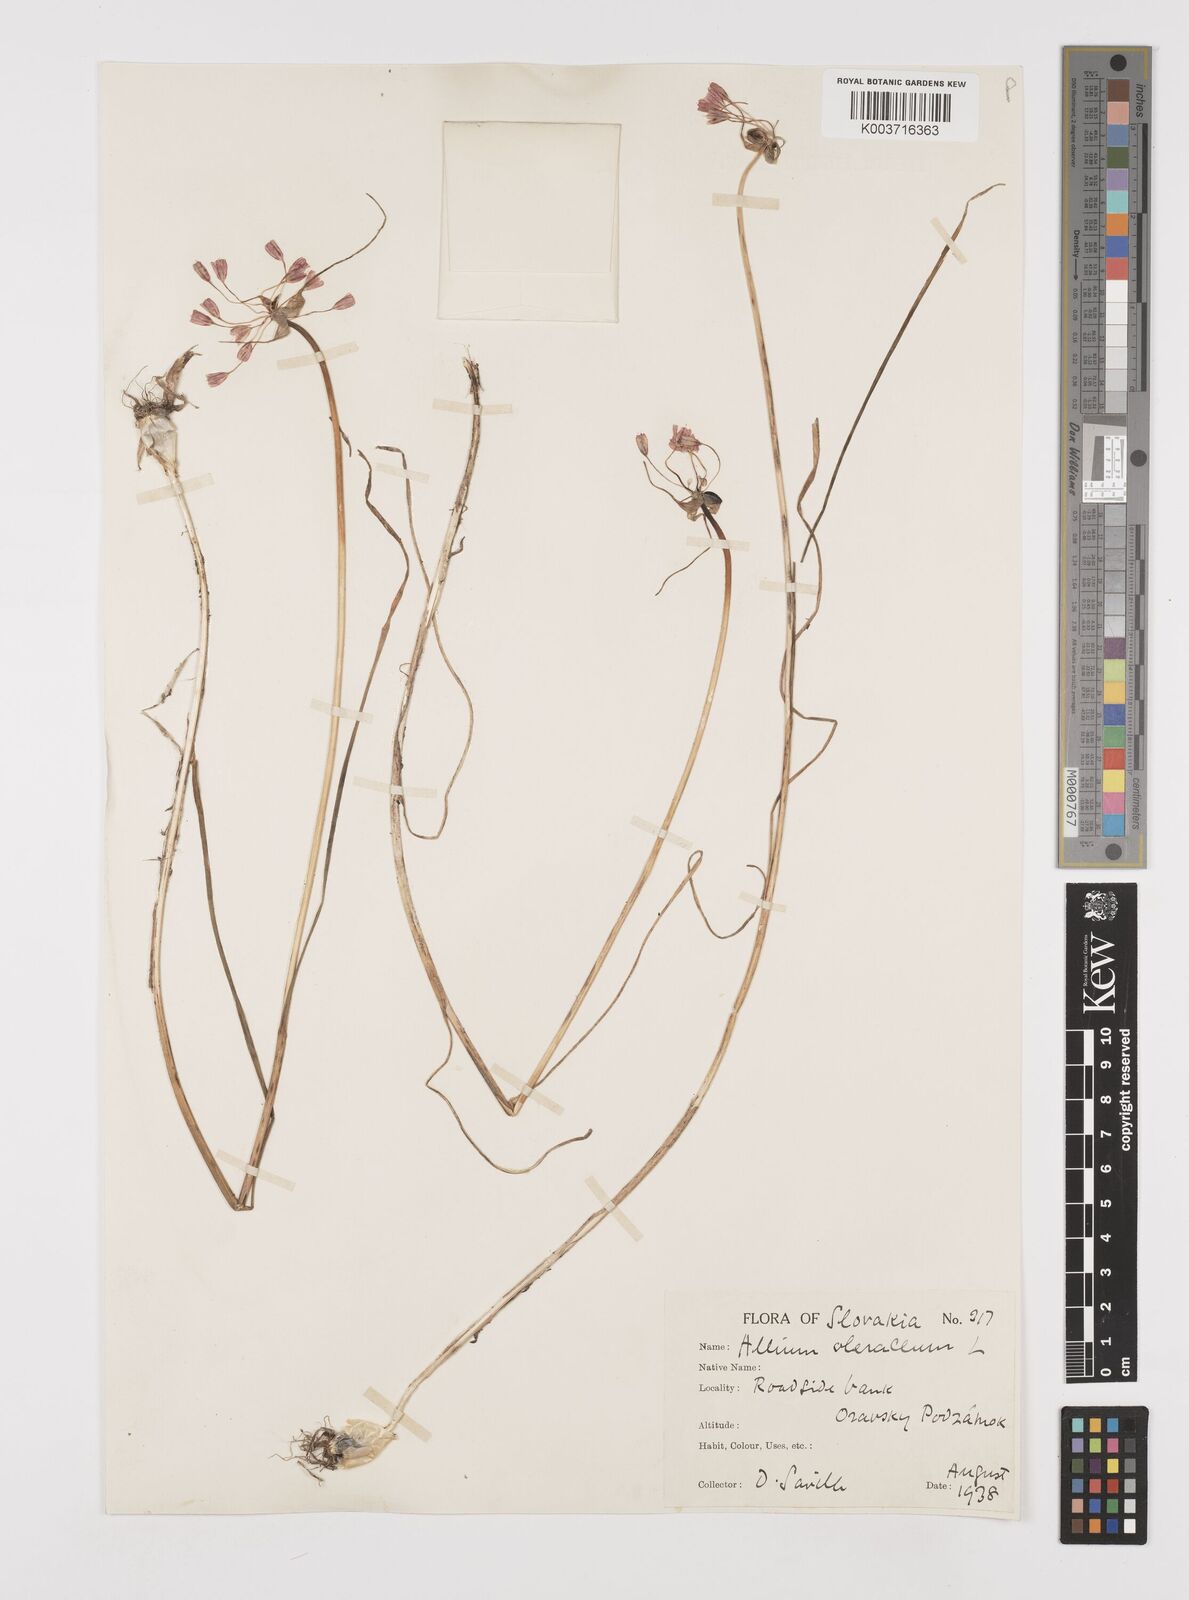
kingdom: Plantae
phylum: Tracheophyta
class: Liliopsida
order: Asparagales
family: Amaryllidaceae
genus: Allium
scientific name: Allium oleraceum
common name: Field garlic
